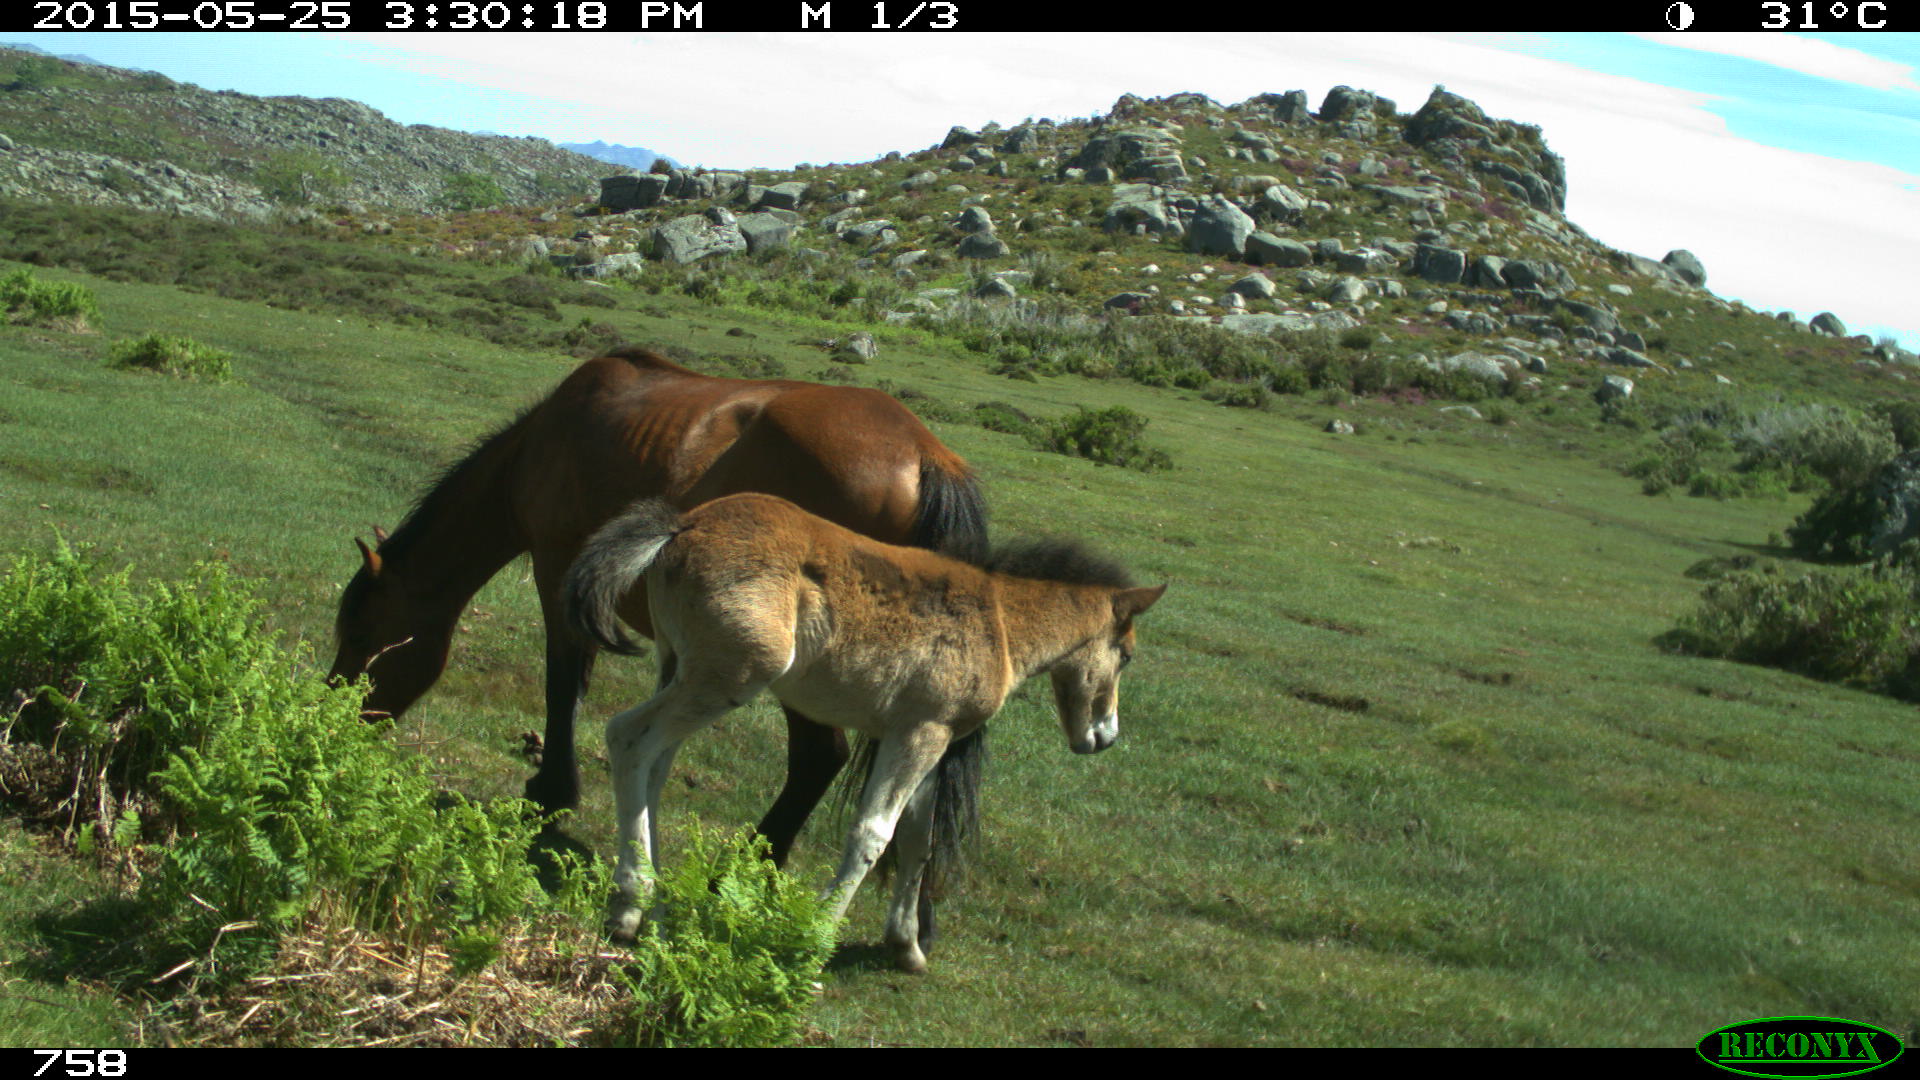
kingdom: Animalia
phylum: Chordata
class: Mammalia
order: Perissodactyla
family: Equidae
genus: Equus
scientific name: Equus caballus
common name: Horse
